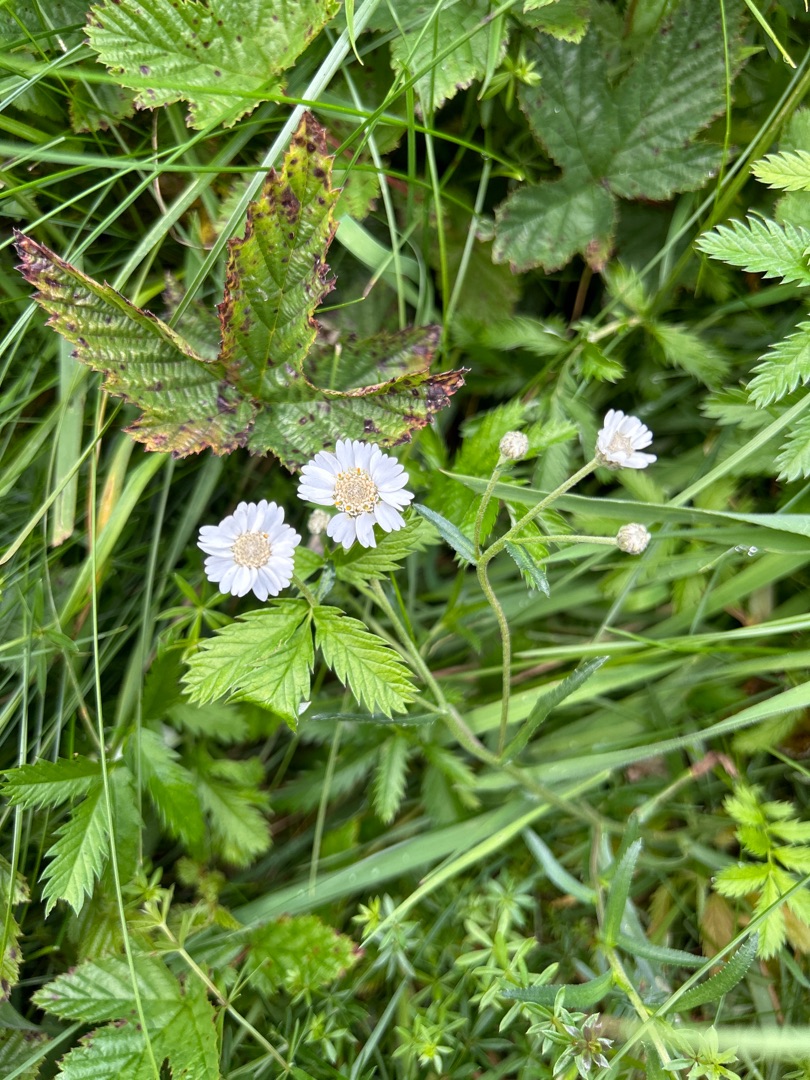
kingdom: Plantae
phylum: Tracheophyta
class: Magnoliopsida
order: Asterales
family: Asteraceae
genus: Achillea
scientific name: Achillea ptarmica
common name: Nyse-røllike
